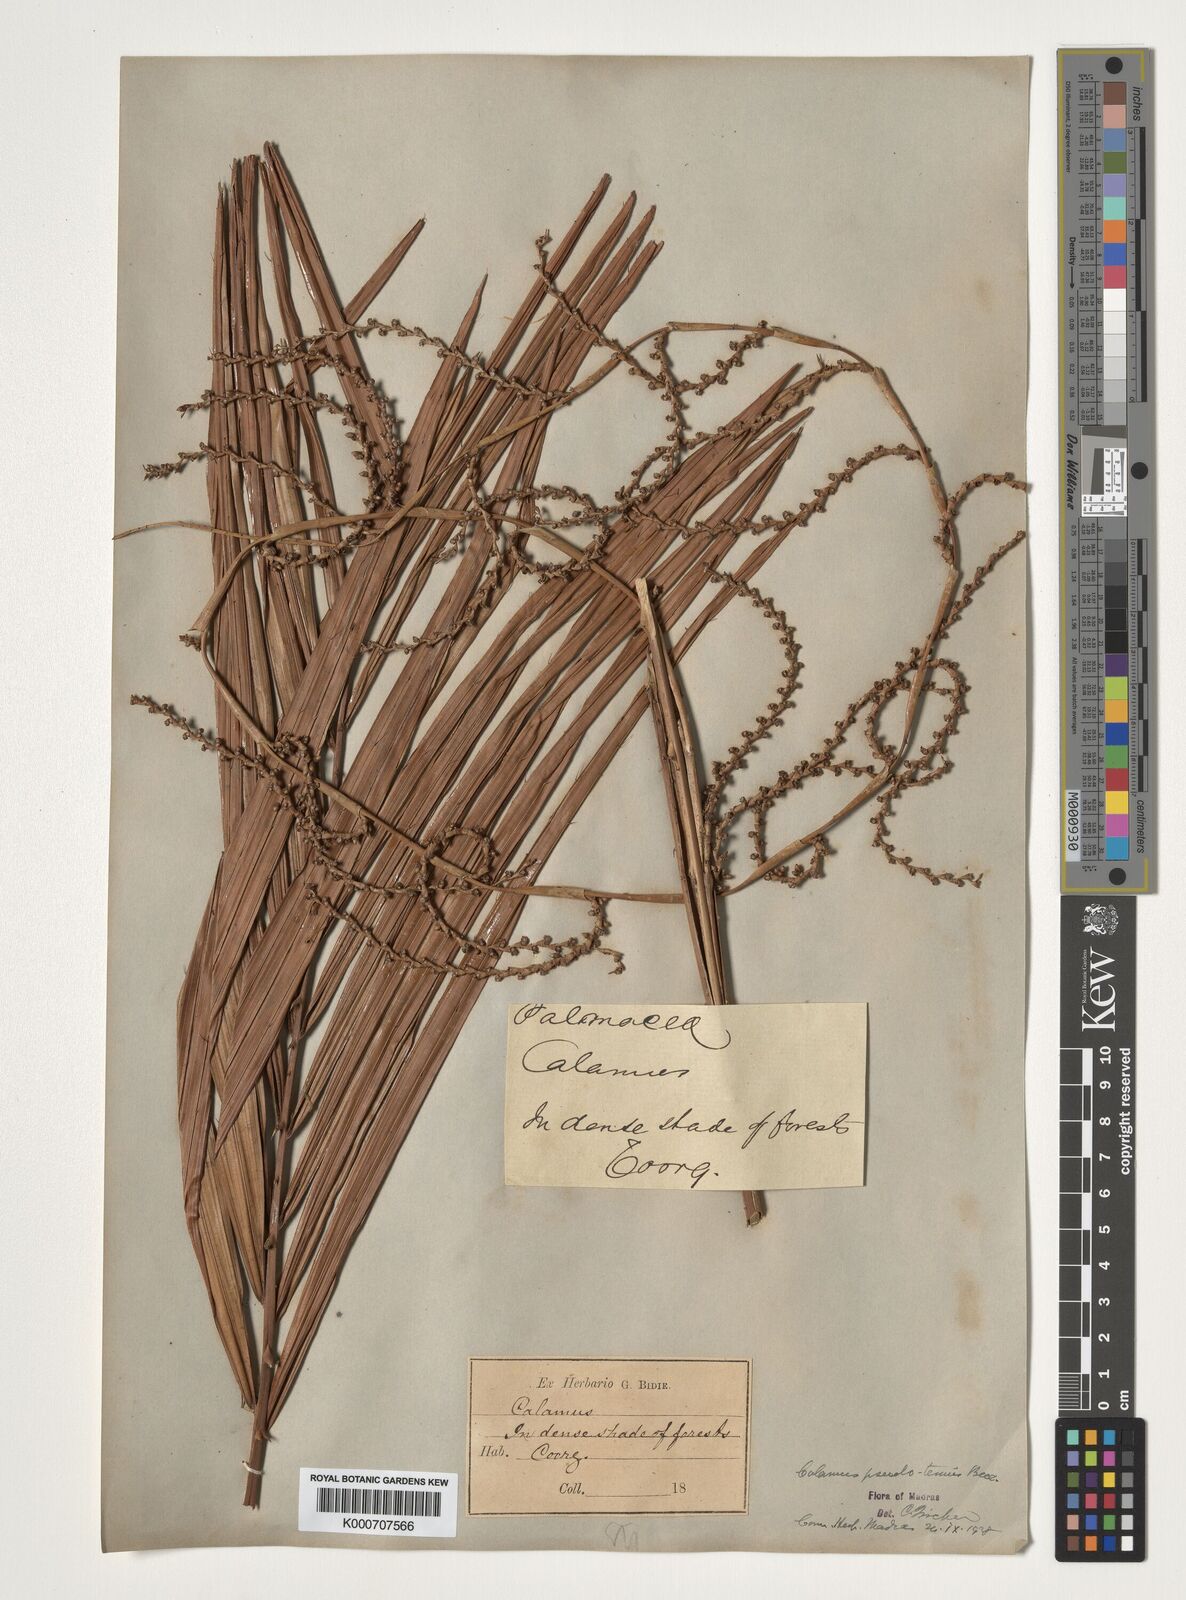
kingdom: Plantae
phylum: Tracheophyta
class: Liliopsida
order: Arecales
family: Arecaceae
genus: Calamus
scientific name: Calamus pseudotenuis
